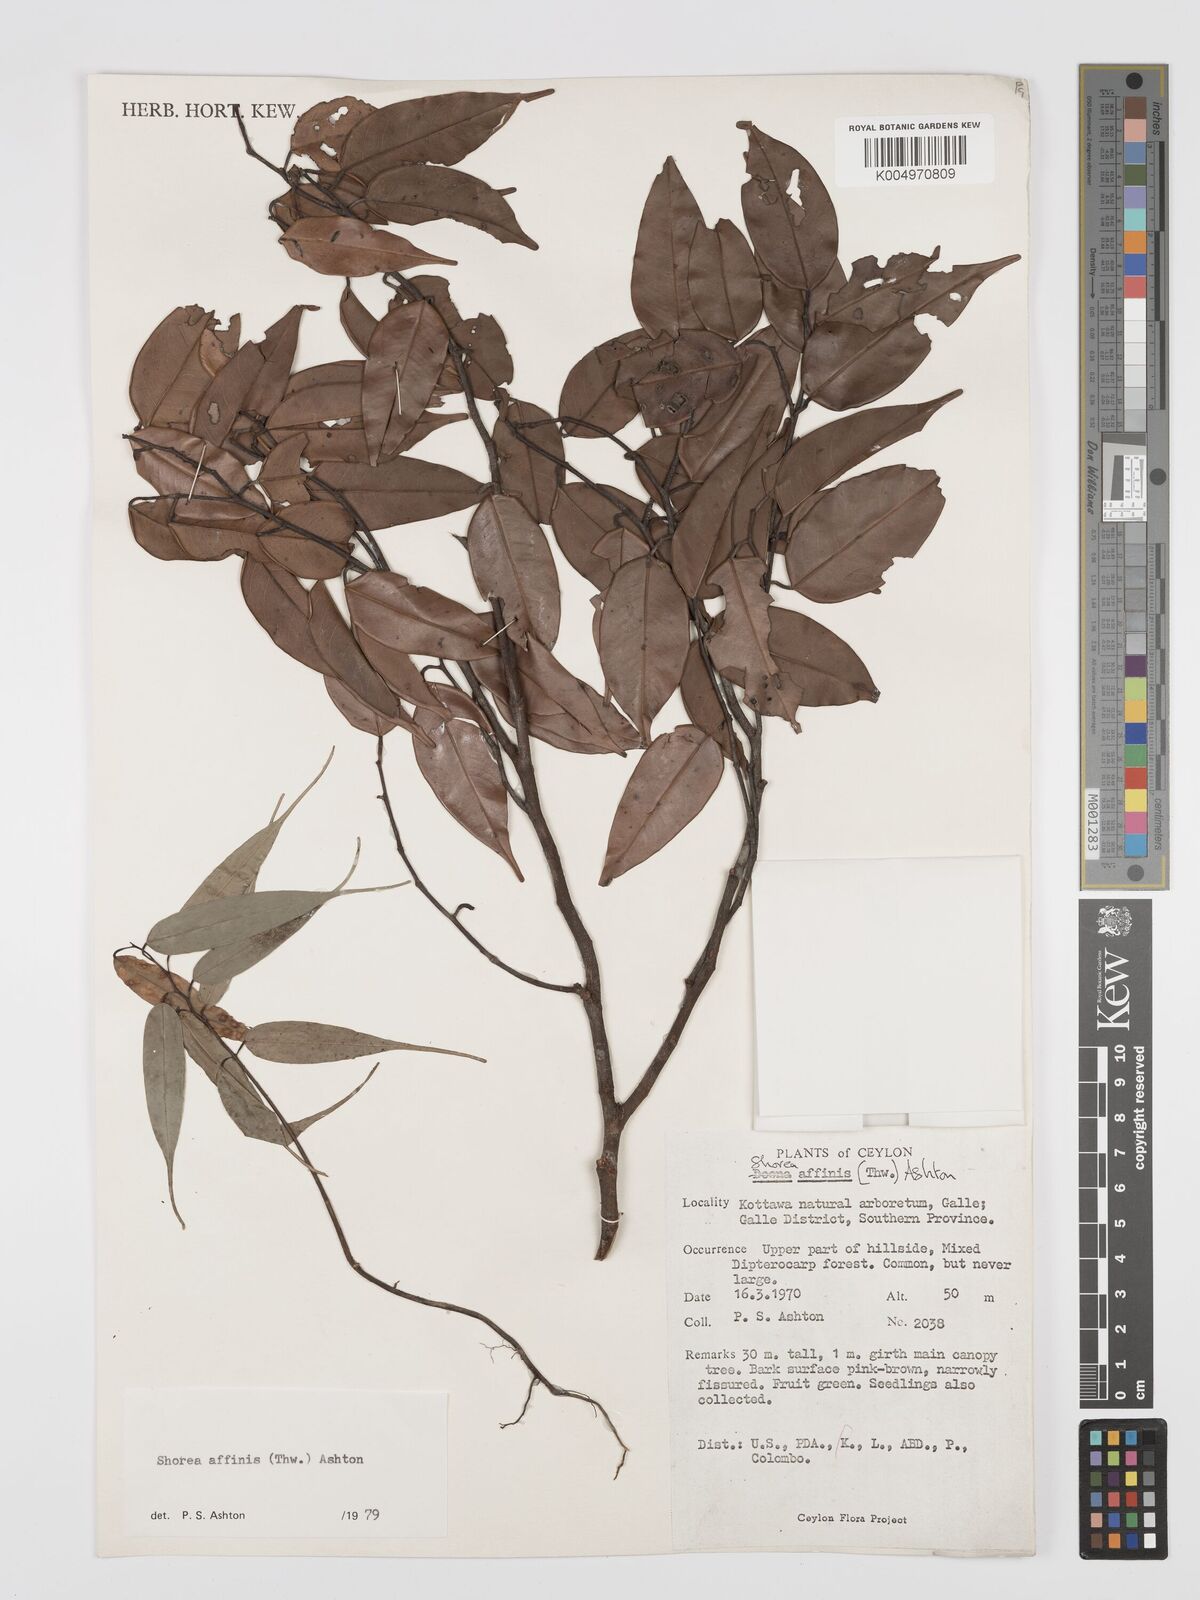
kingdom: Plantae
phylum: Tracheophyta
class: Magnoliopsida
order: Malvales
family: Dipterocarpaceae
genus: Doona
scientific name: Doona affinis
